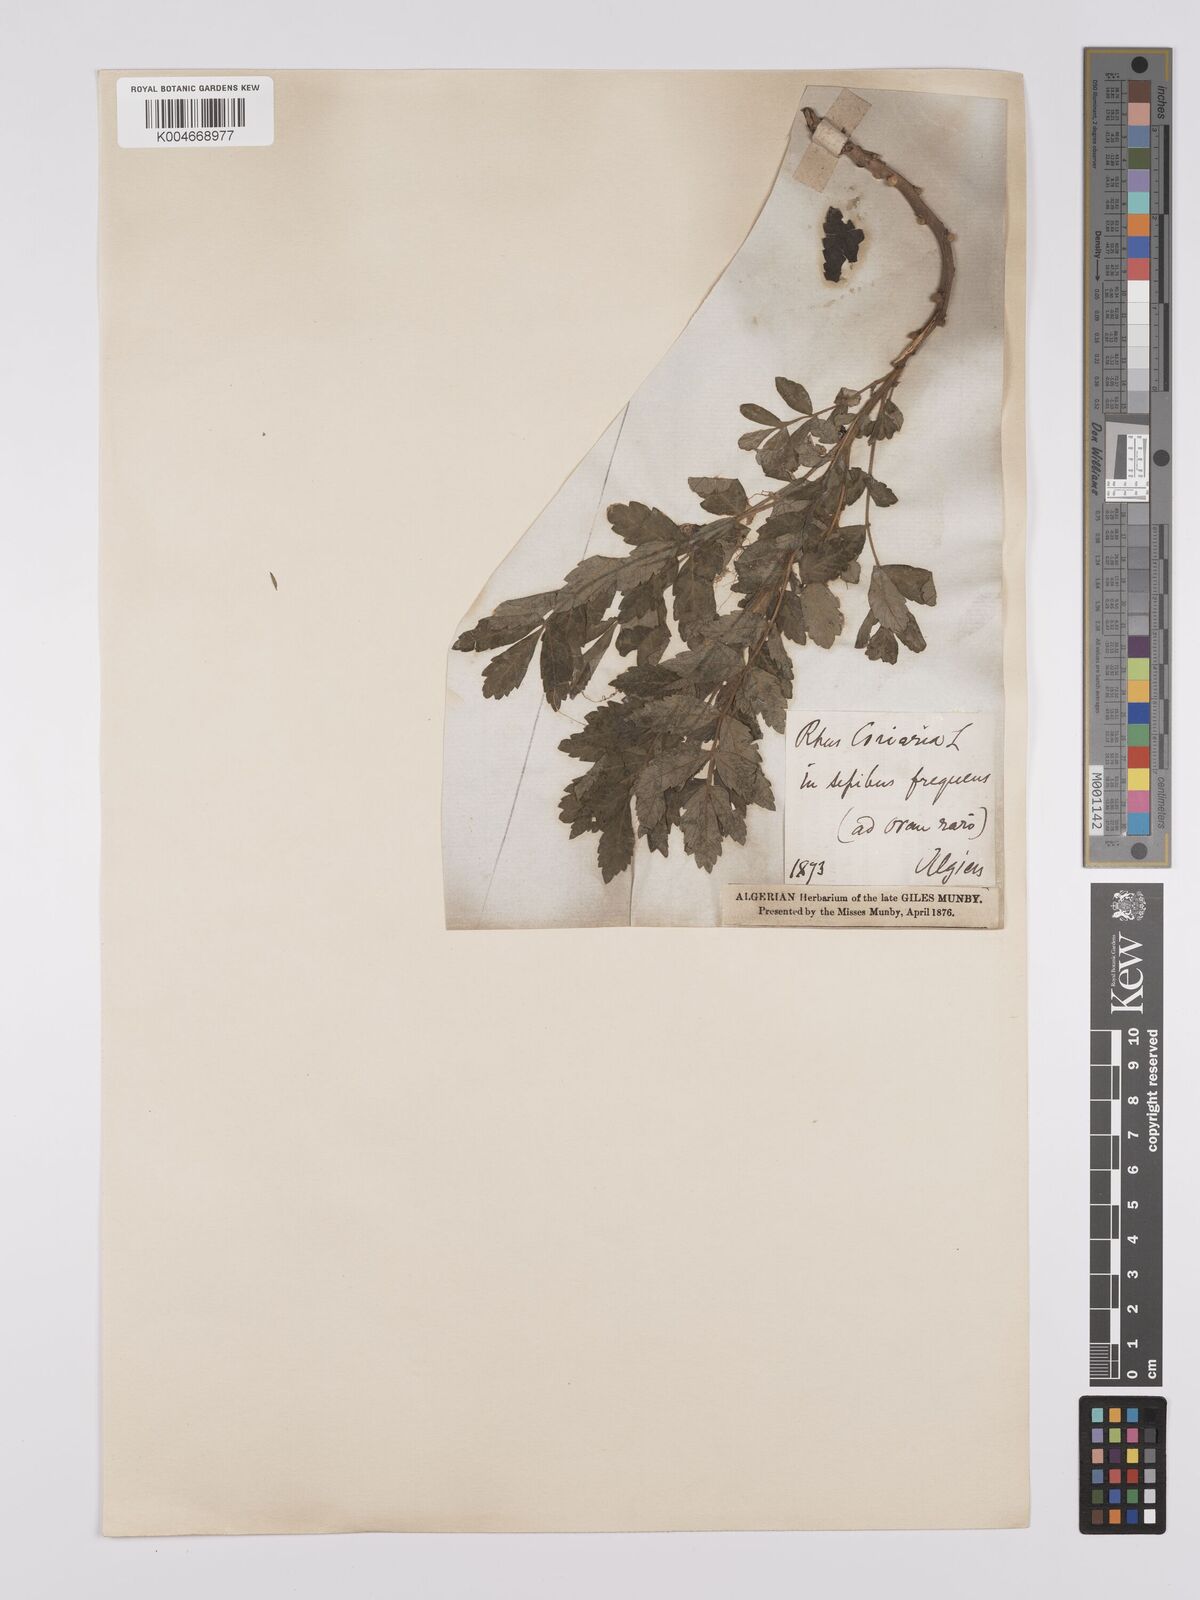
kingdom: Plantae
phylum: Tracheophyta
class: Magnoliopsida
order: Sapindales
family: Anacardiaceae
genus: Rhus
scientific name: Rhus coriaria
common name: Tanner's sumach
